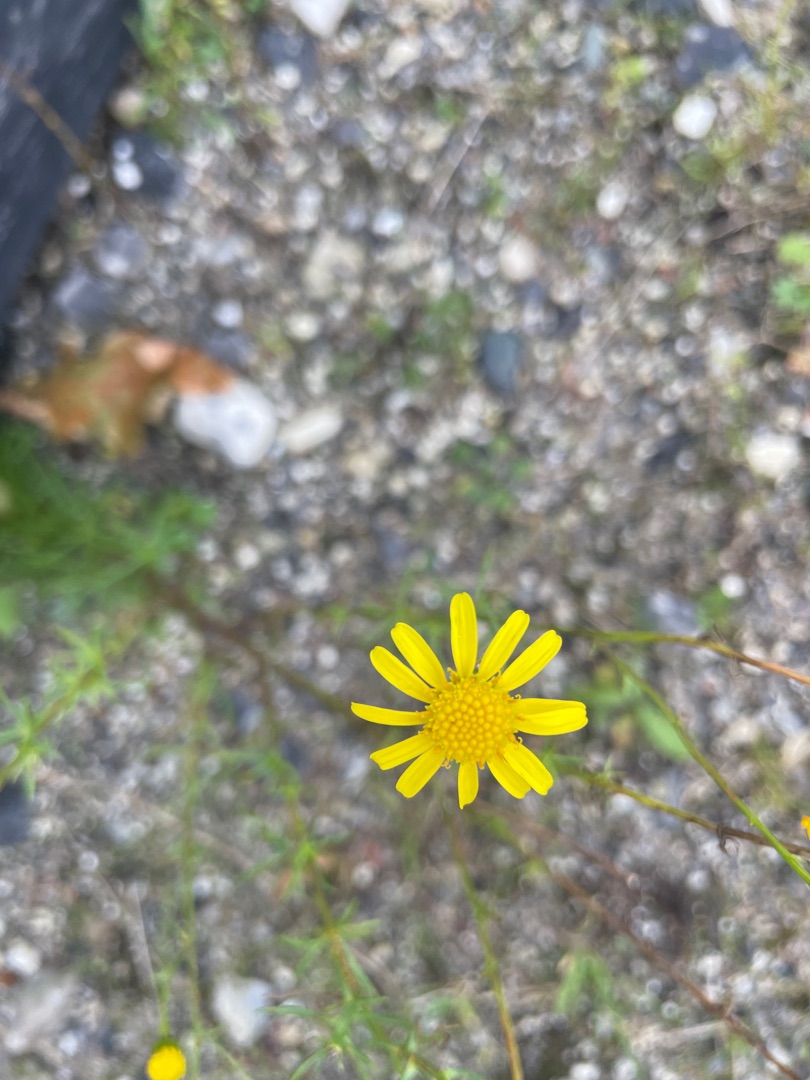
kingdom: Plantae
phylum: Tracheophyta
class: Magnoliopsida
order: Asterales
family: Asteraceae
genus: Senecio
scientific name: Senecio inaequidens
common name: Smalbladet brandbæger
